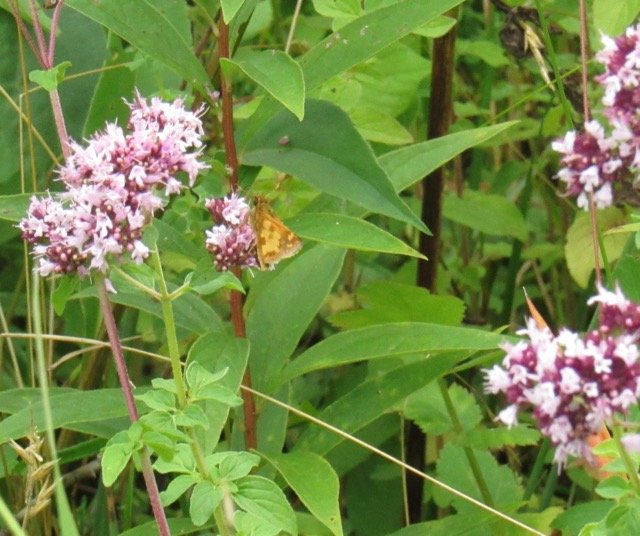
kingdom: Animalia
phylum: Arthropoda
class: Insecta
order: Lepidoptera
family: Hesperiidae
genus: Polites
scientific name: Polites coras
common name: Peck's Skipper
